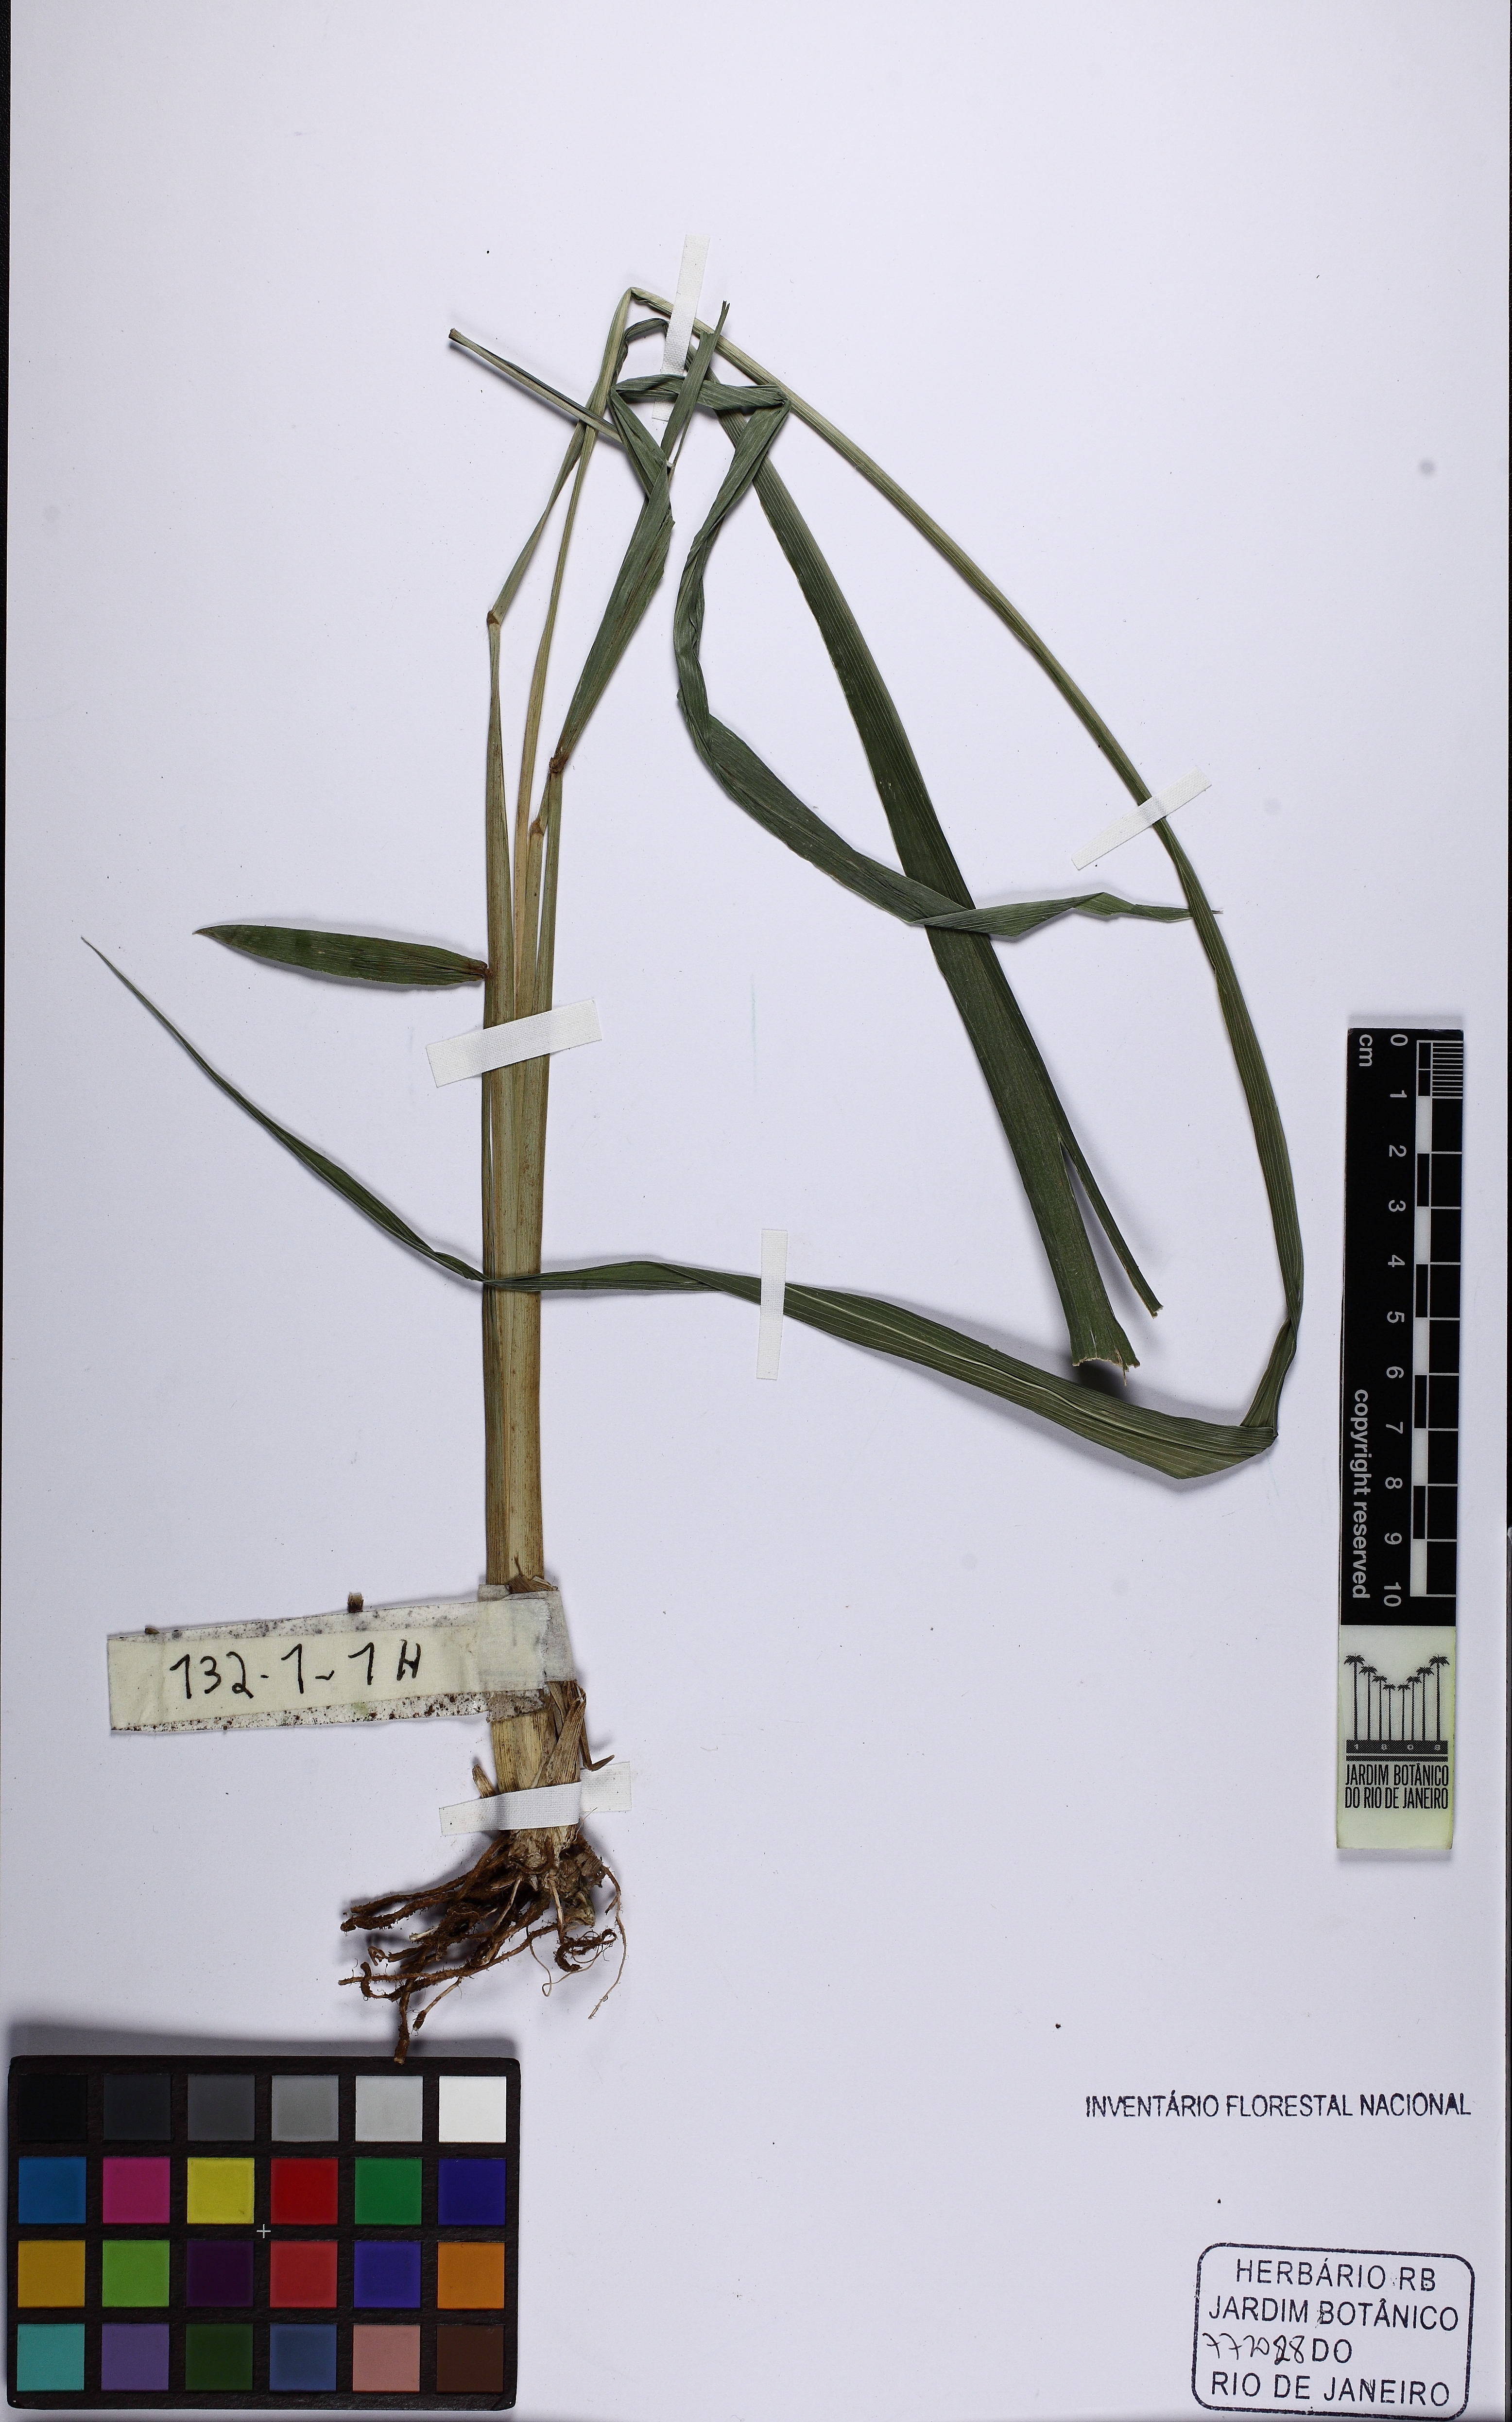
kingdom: Plantae
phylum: Tracheophyta
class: Liliopsida
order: Poales
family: Poaceae
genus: Homolepis
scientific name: Homolepis glutinosa
